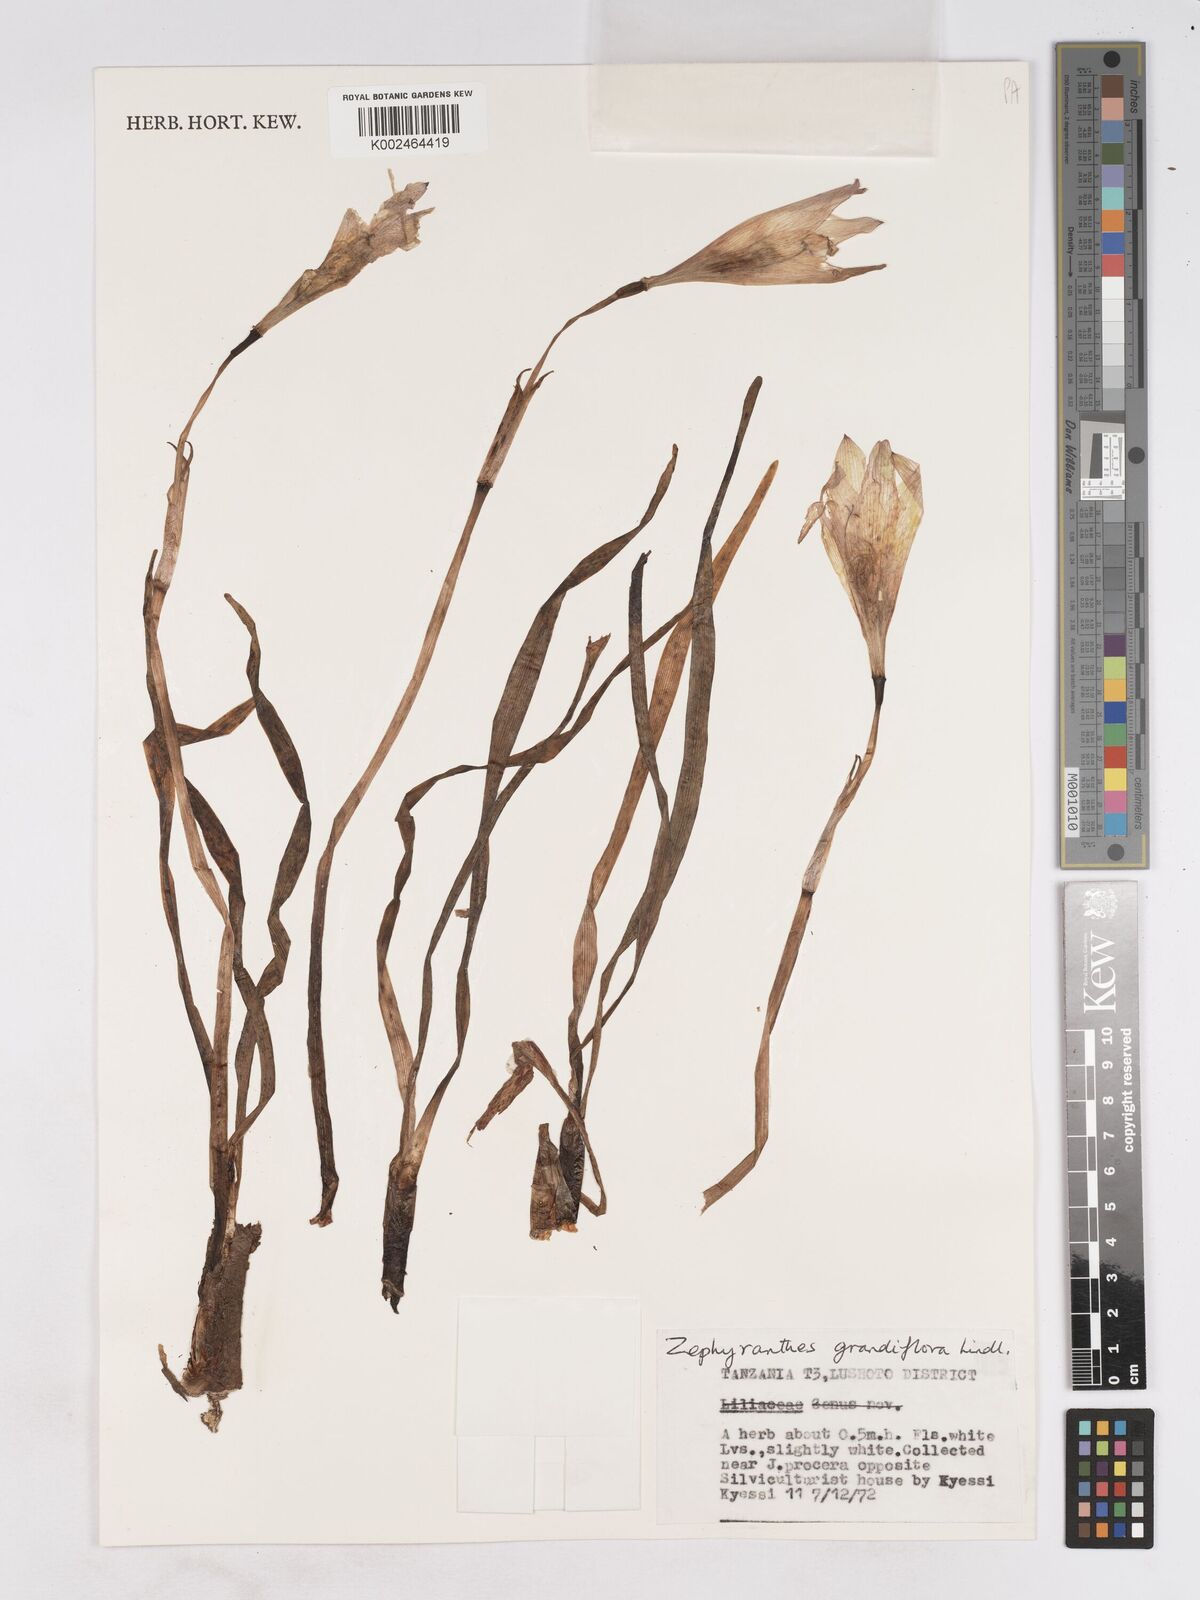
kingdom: Plantae
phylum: Tracheophyta
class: Liliopsida
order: Asparagales
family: Amaryllidaceae
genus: Zephyranthes
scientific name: Zephyranthes minuta
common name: Pink rain lily
